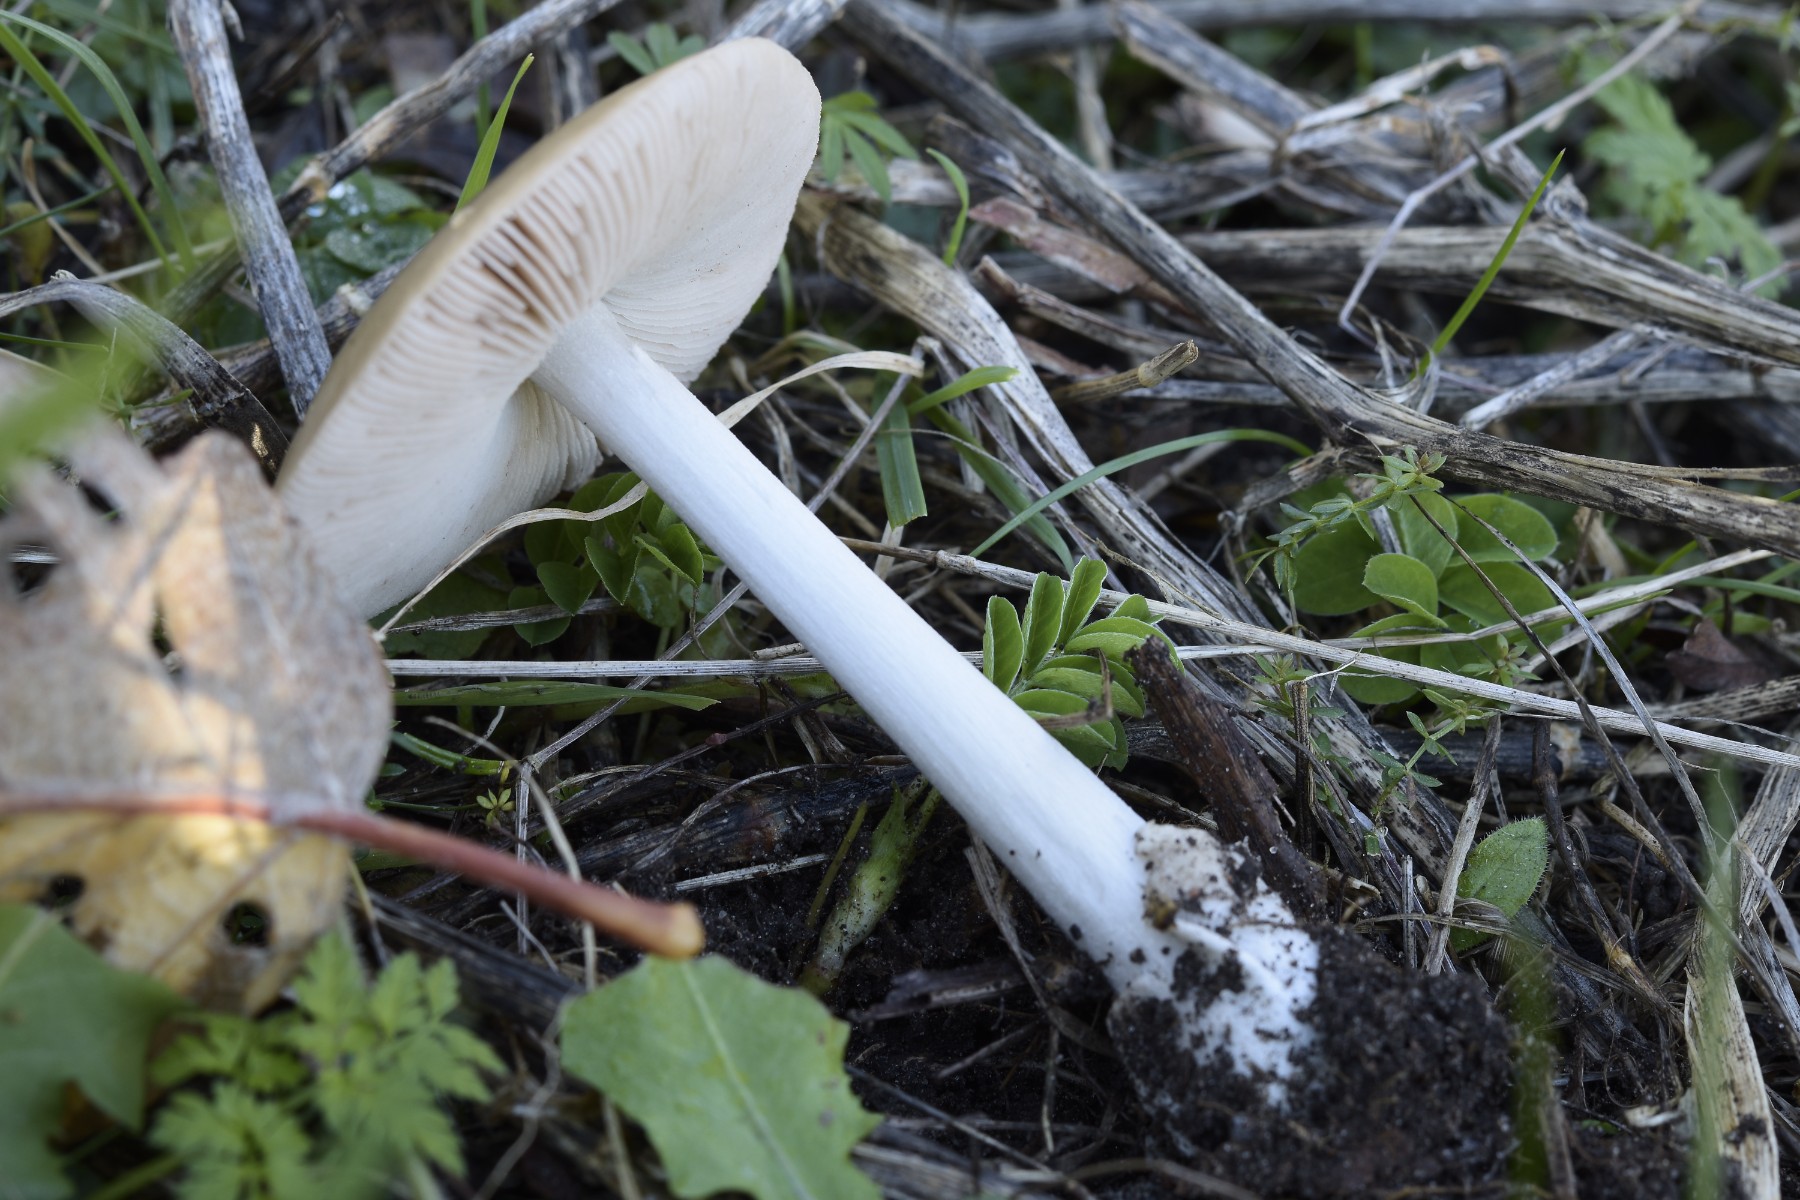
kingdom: Fungi
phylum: Basidiomycota
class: Agaricomycetes
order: Agaricales
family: Pluteaceae
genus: Volvopluteus
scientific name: Volvopluteus gloiocephalus
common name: høj posesvamp
